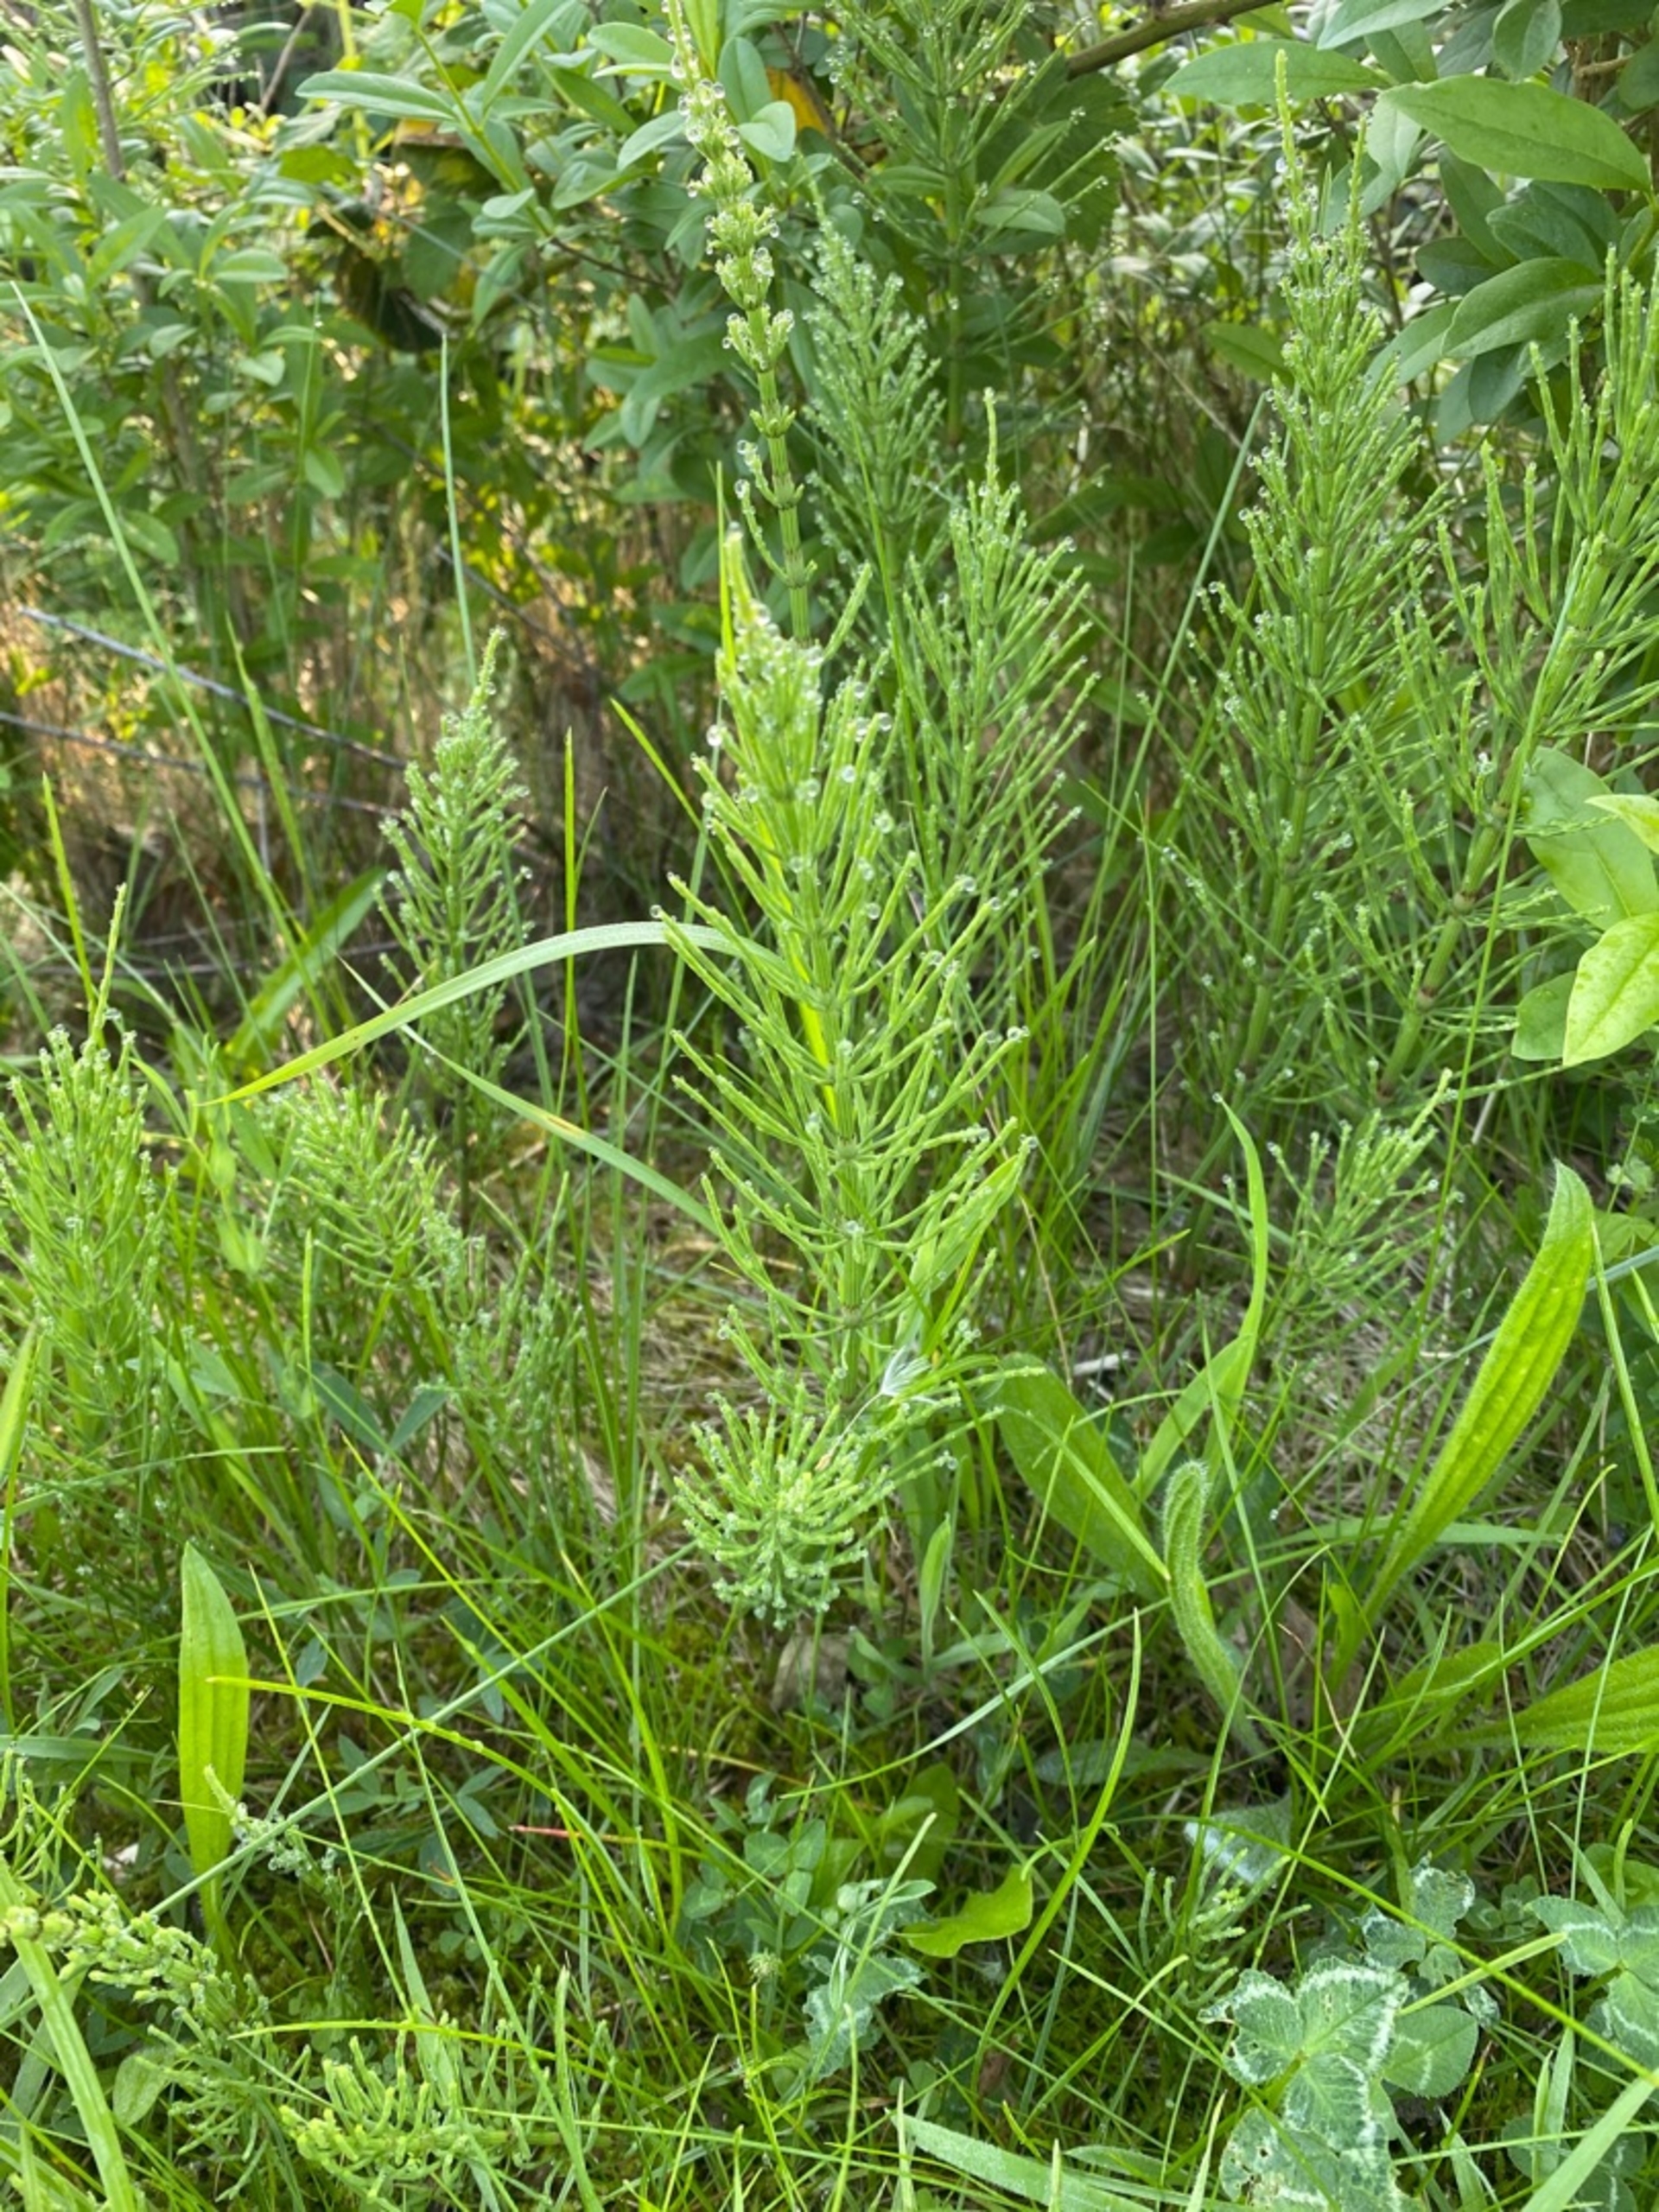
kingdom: Plantae
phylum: Tracheophyta
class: Polypodiopsida
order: Equisetales
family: Equisetaceae
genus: Equisetum
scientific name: Equisetum arvense
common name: Ager-padderok
